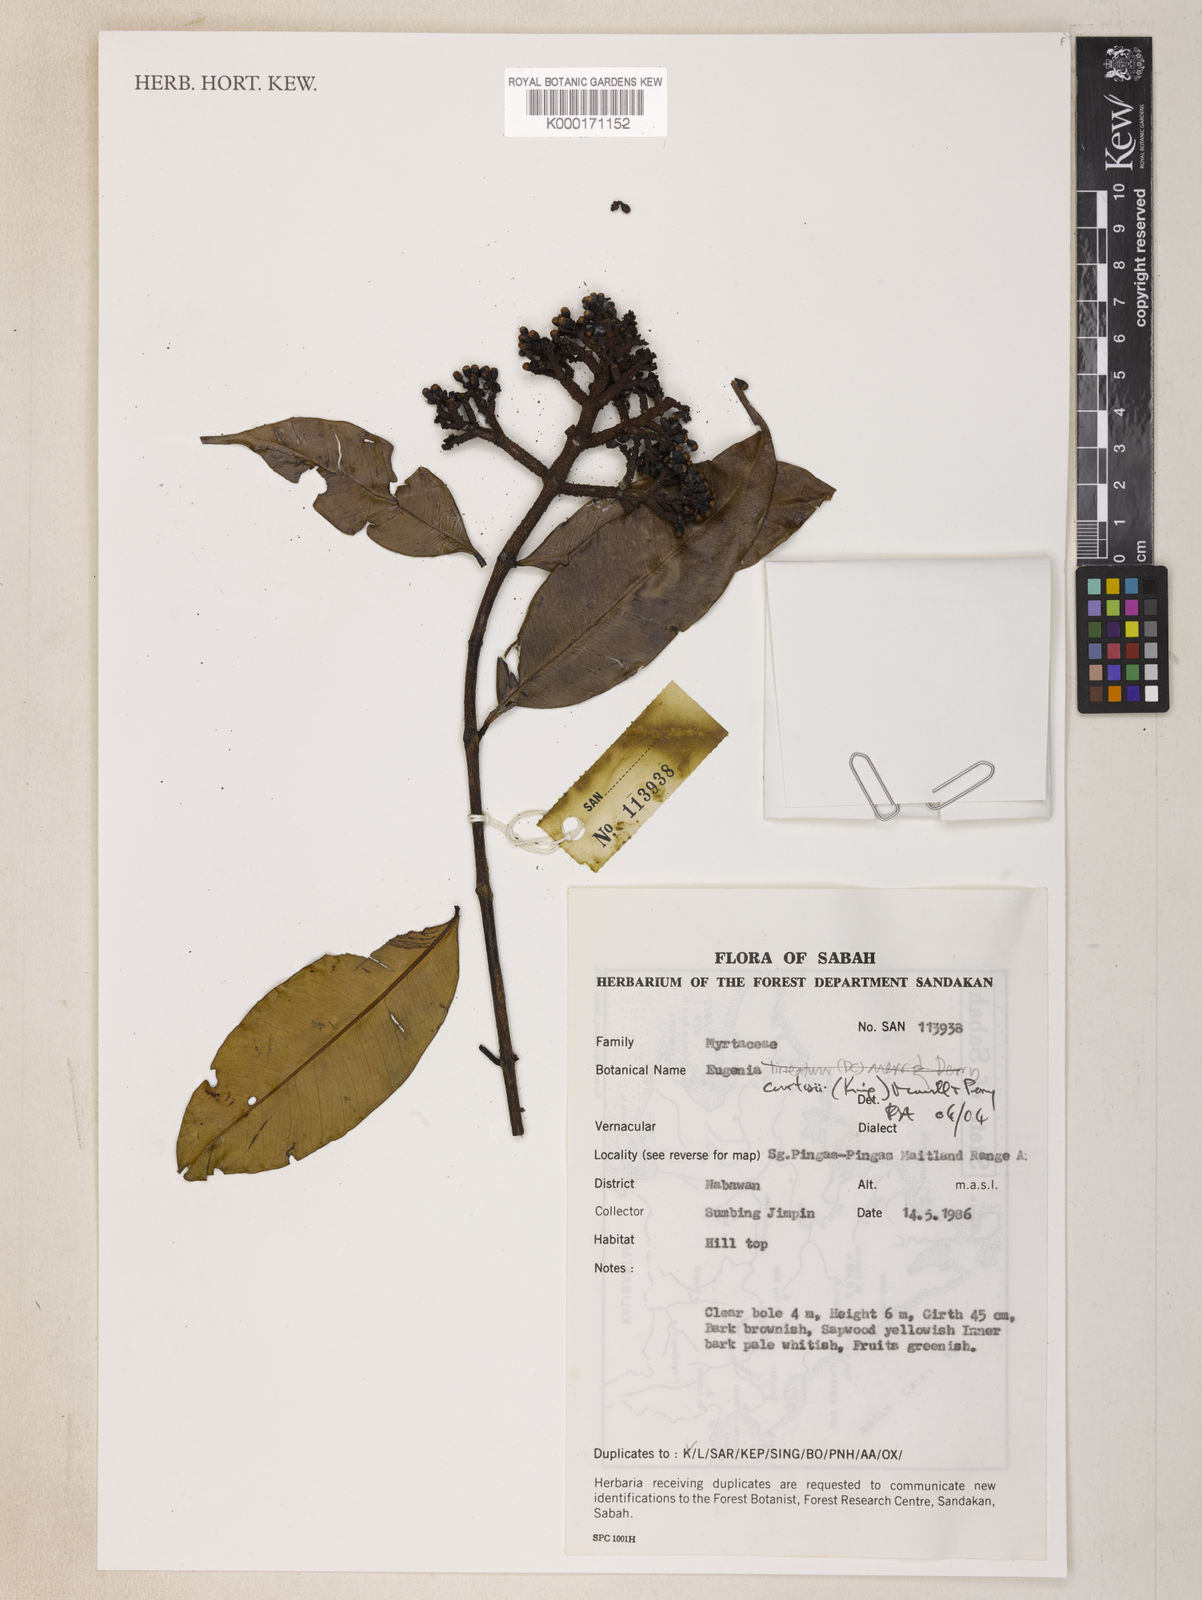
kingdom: Plantae
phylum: Tracheophyta
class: Magnoliopsida
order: Myrtales
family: Myrtaceae
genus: Syzygium
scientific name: Syzygium
